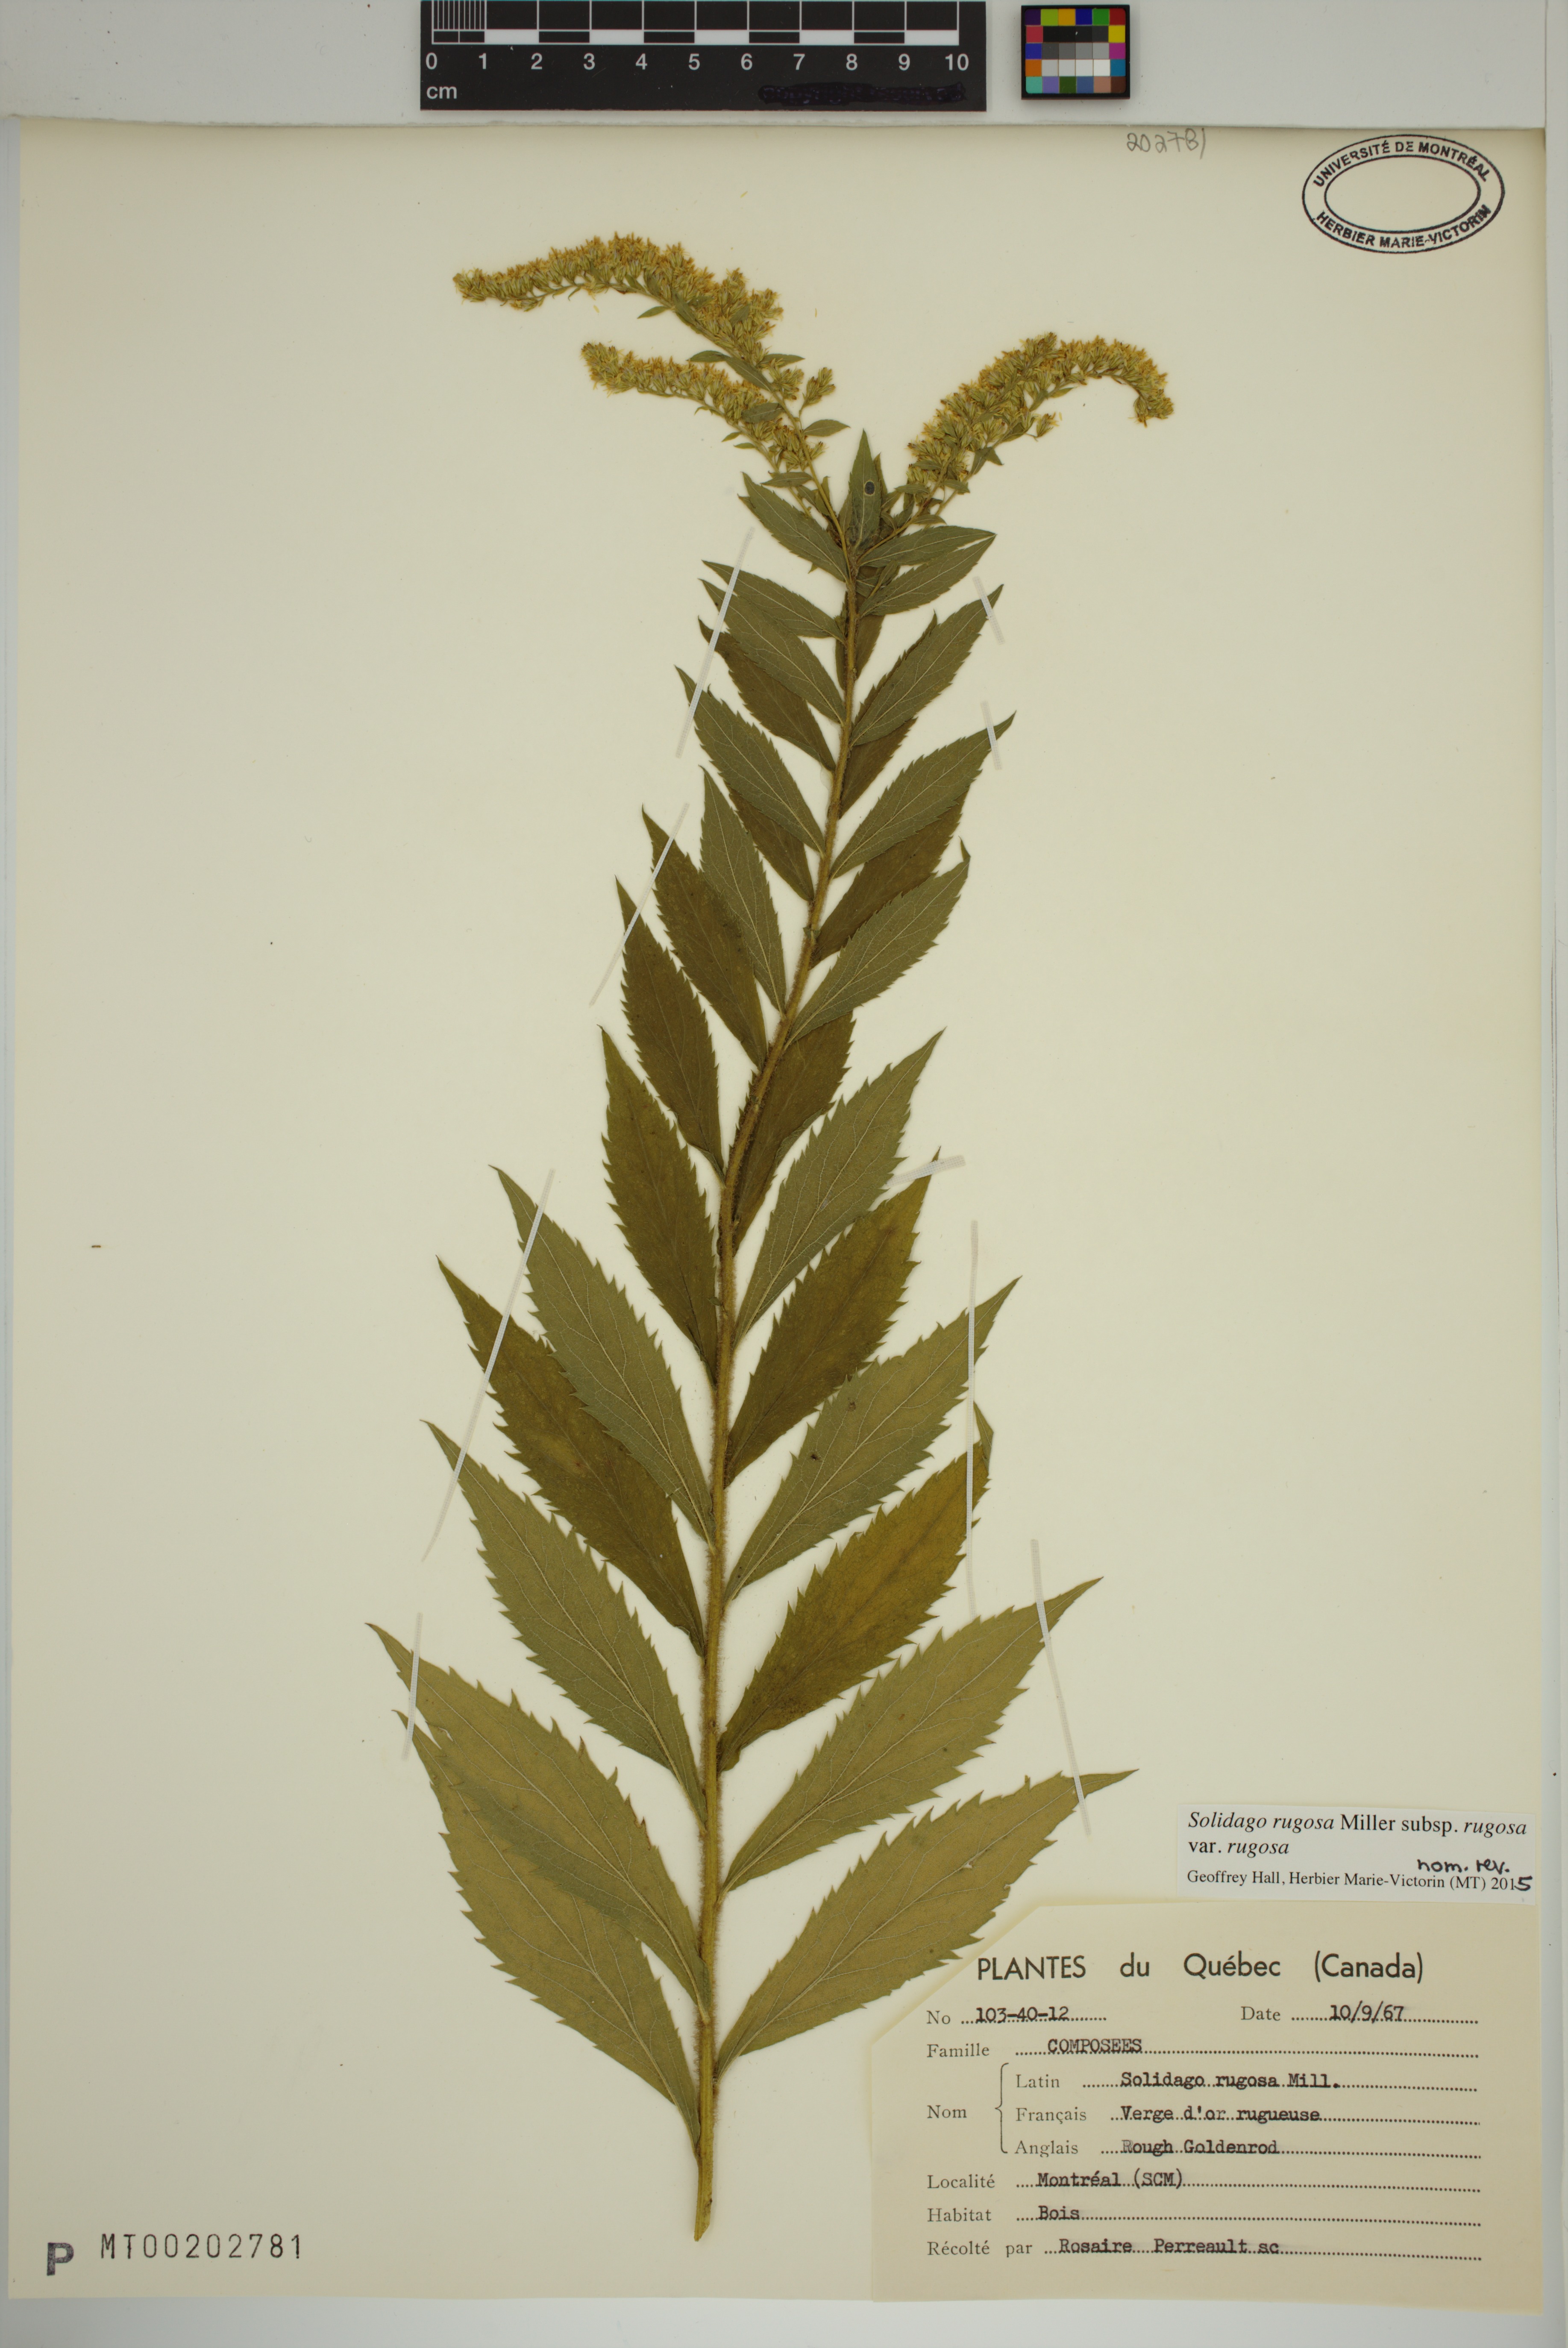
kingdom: Plantae
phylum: Tracheophyta
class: Magnoliopsida
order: Asterales
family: Asteraceae
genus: Solidago
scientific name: Solidago rugosa
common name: Rough-stemmed goldenrod
